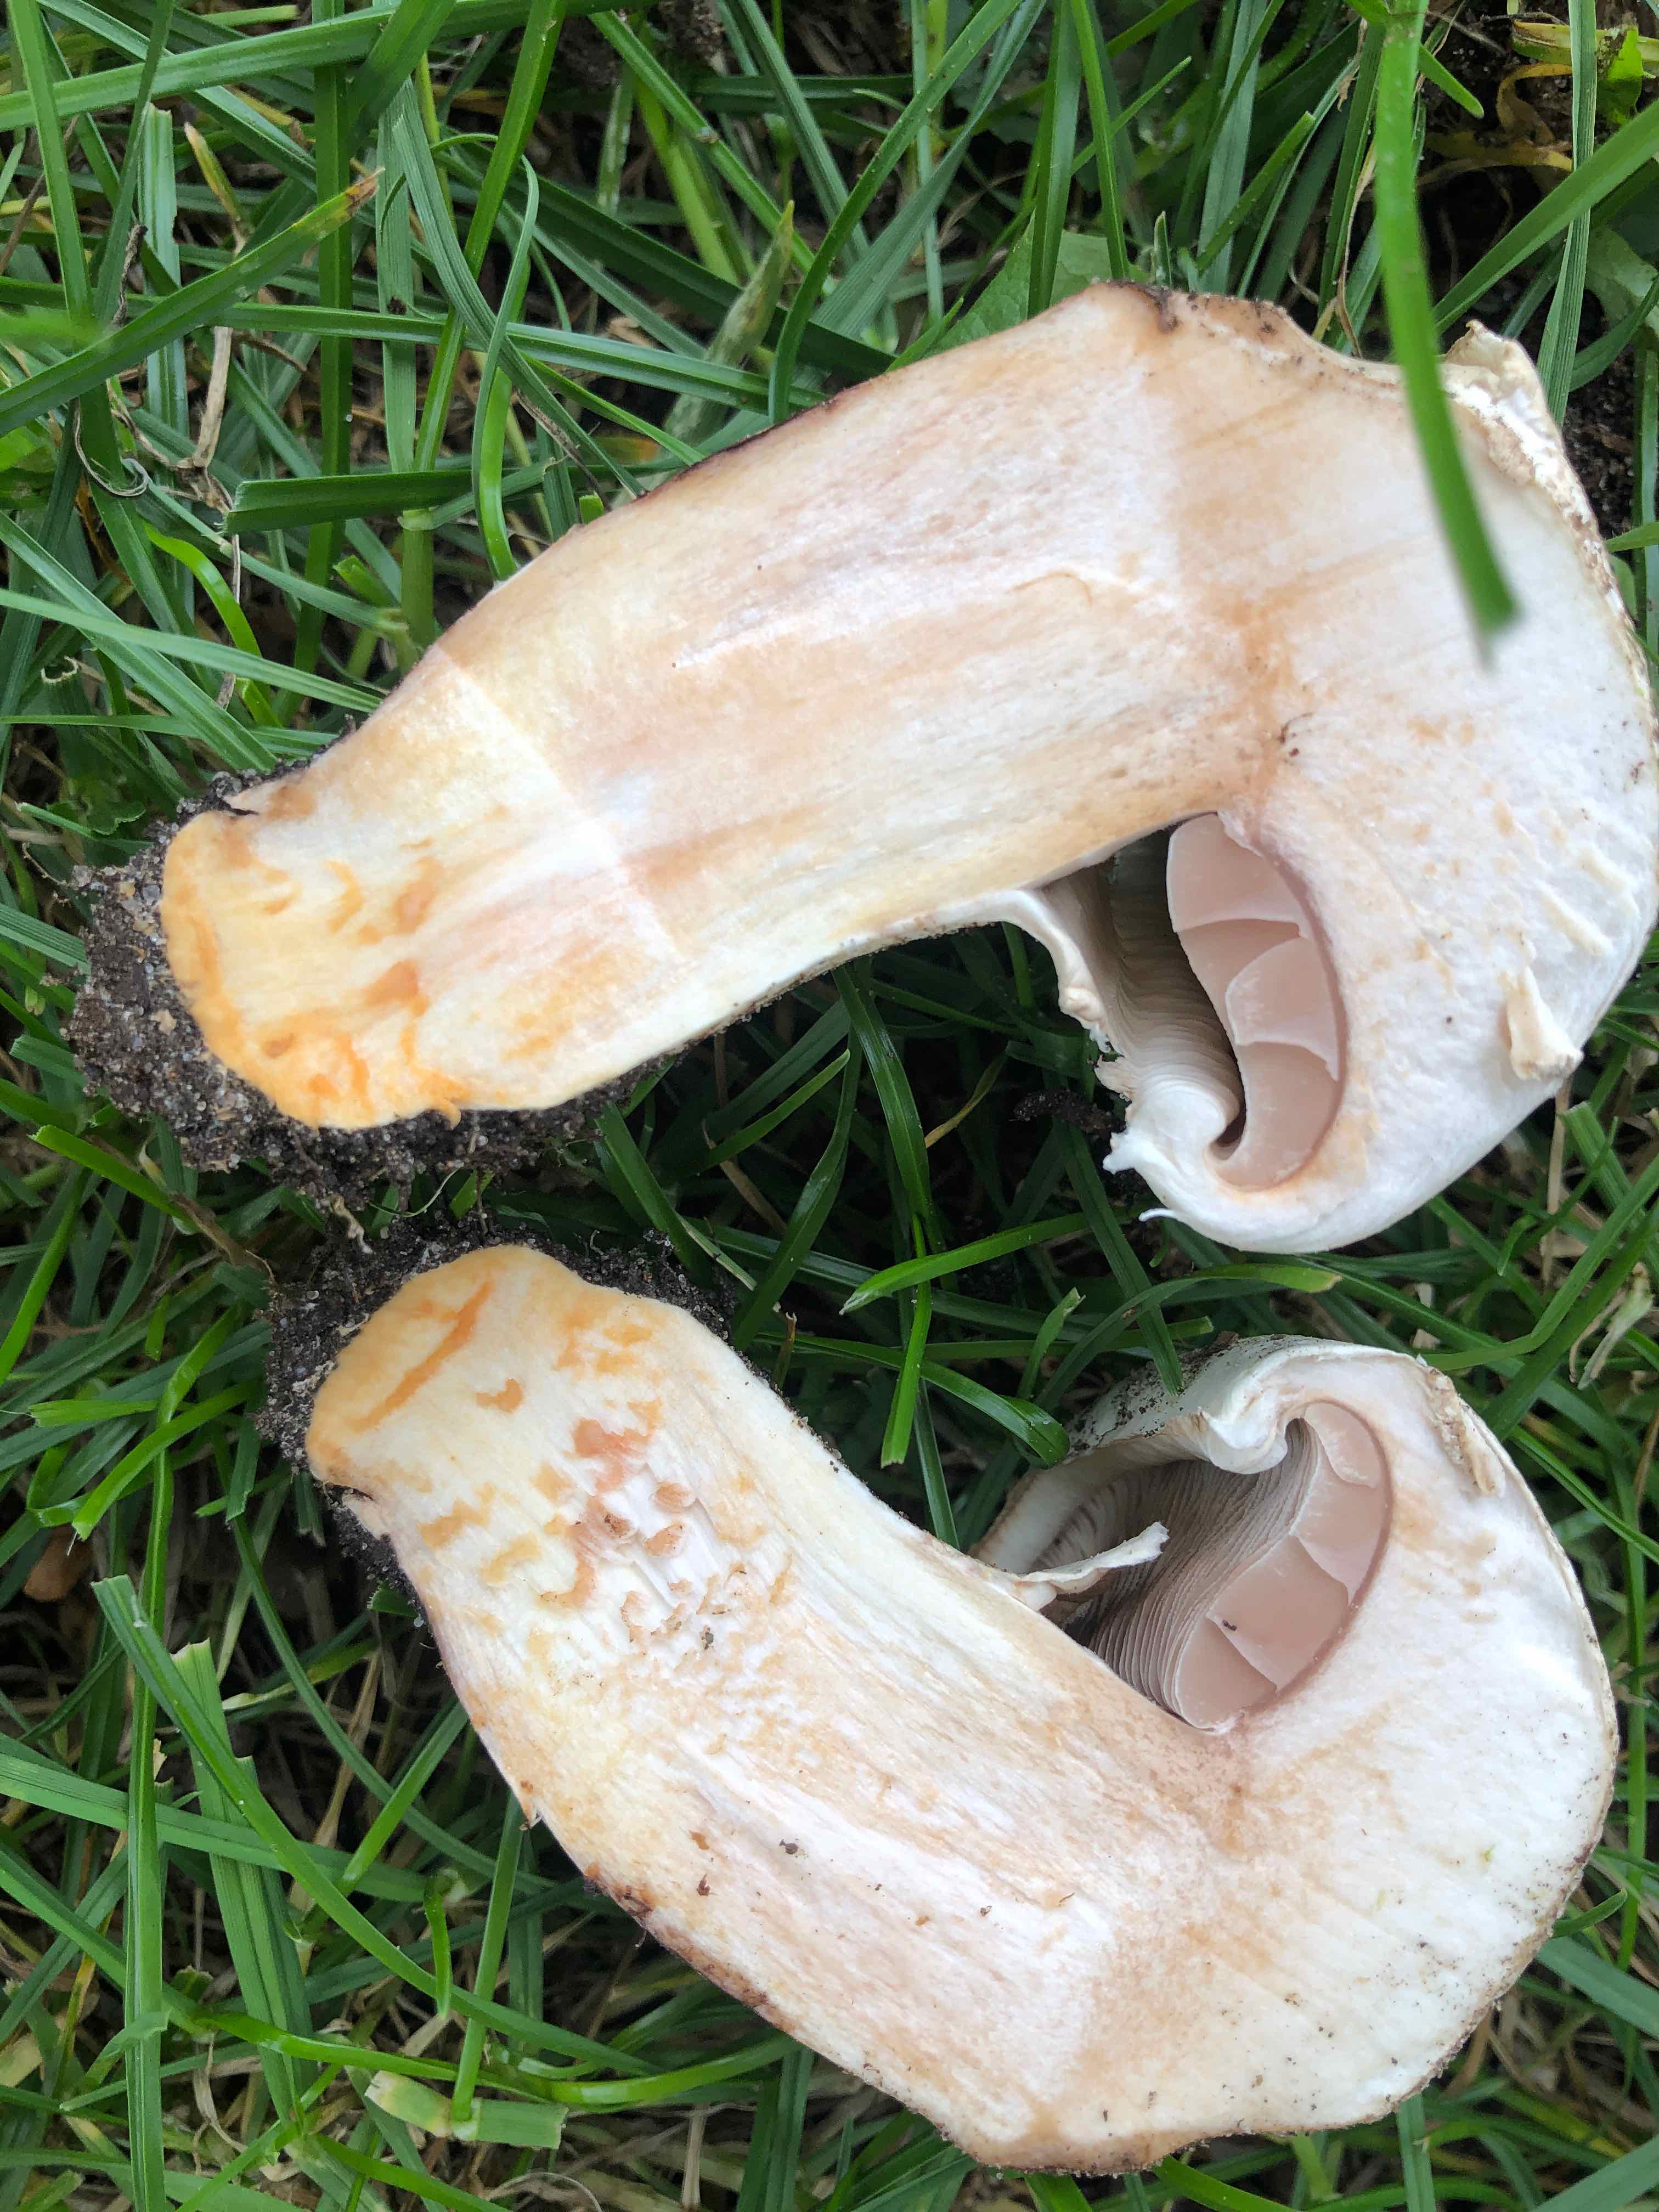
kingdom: Fungi
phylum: Basidiomycota
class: Agaricomycetes
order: Agaricales
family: Agaricaceae
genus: Agaricus
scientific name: Agaricus bernardii
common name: strandengs-champignon
